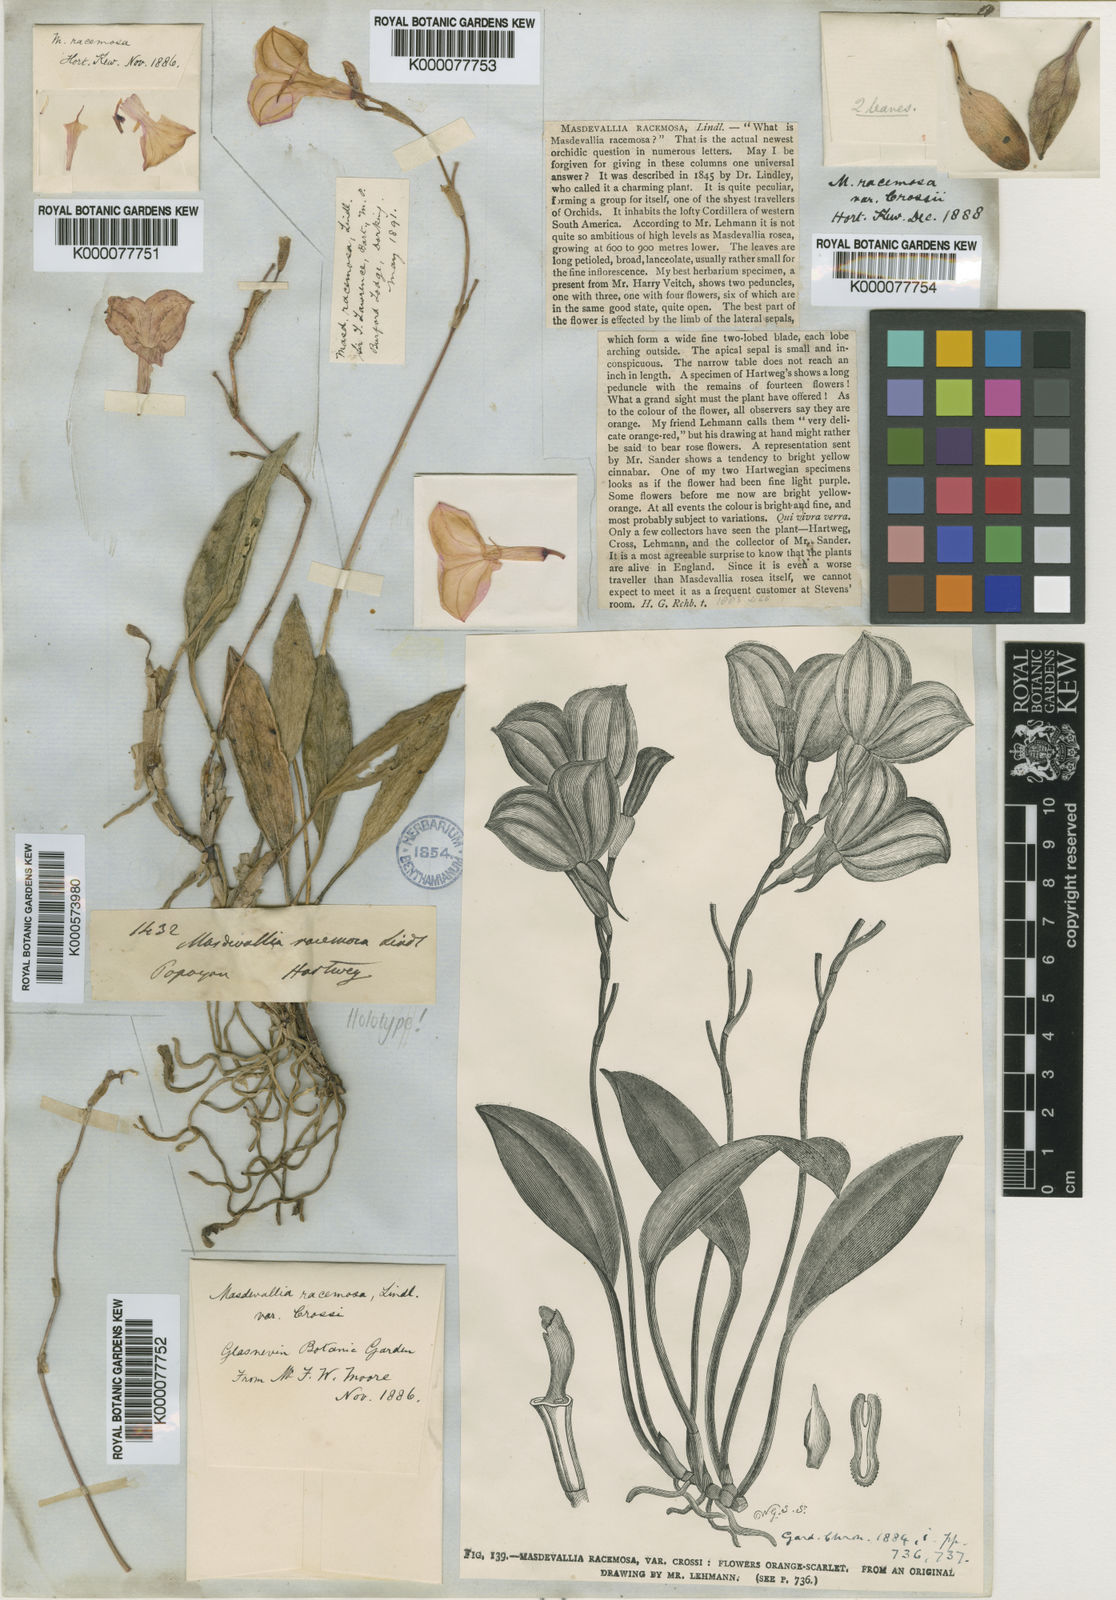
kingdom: Plantae
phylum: Tracheophyta
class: Liliopsida
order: Asparagales
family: Orchidaceae
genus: Masdevallia
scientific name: Masdevallia racemosa
